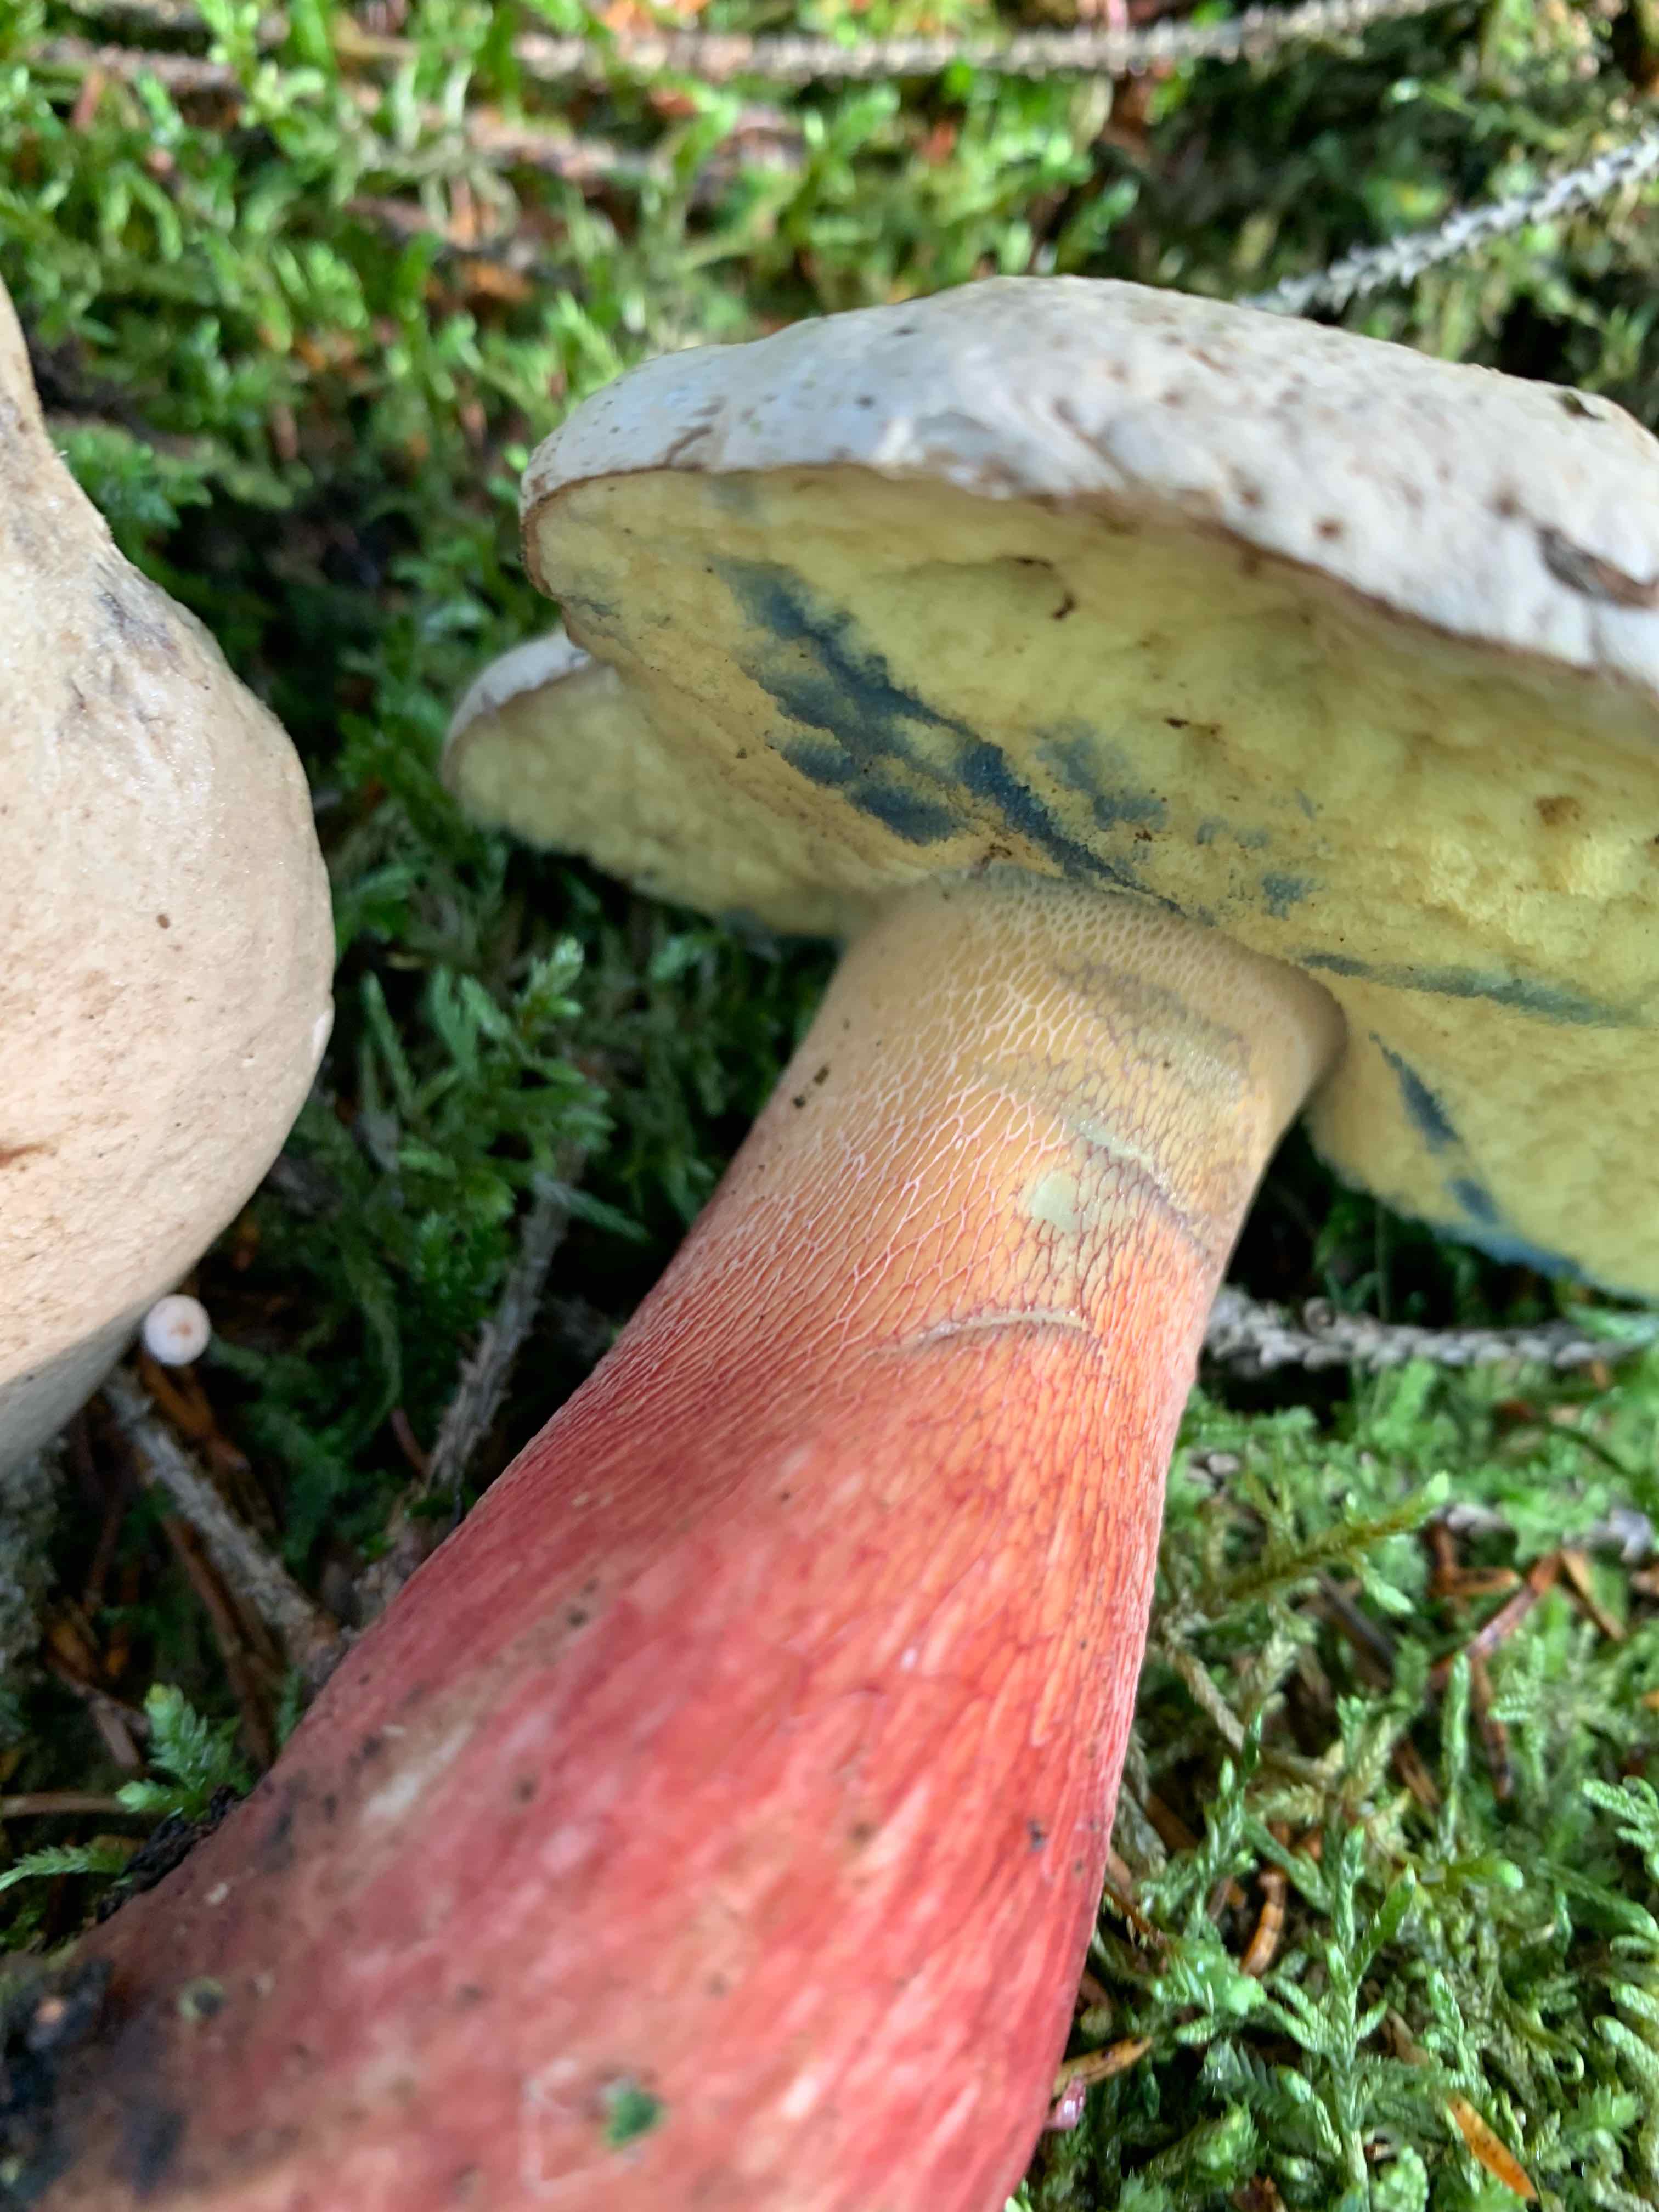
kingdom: Fungi
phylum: Basidiomycota
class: Agaricomycetes
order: Boletales
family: Boletaceae
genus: Caloboletus
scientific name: Caloboletus calopus
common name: skønfodet rørhat
